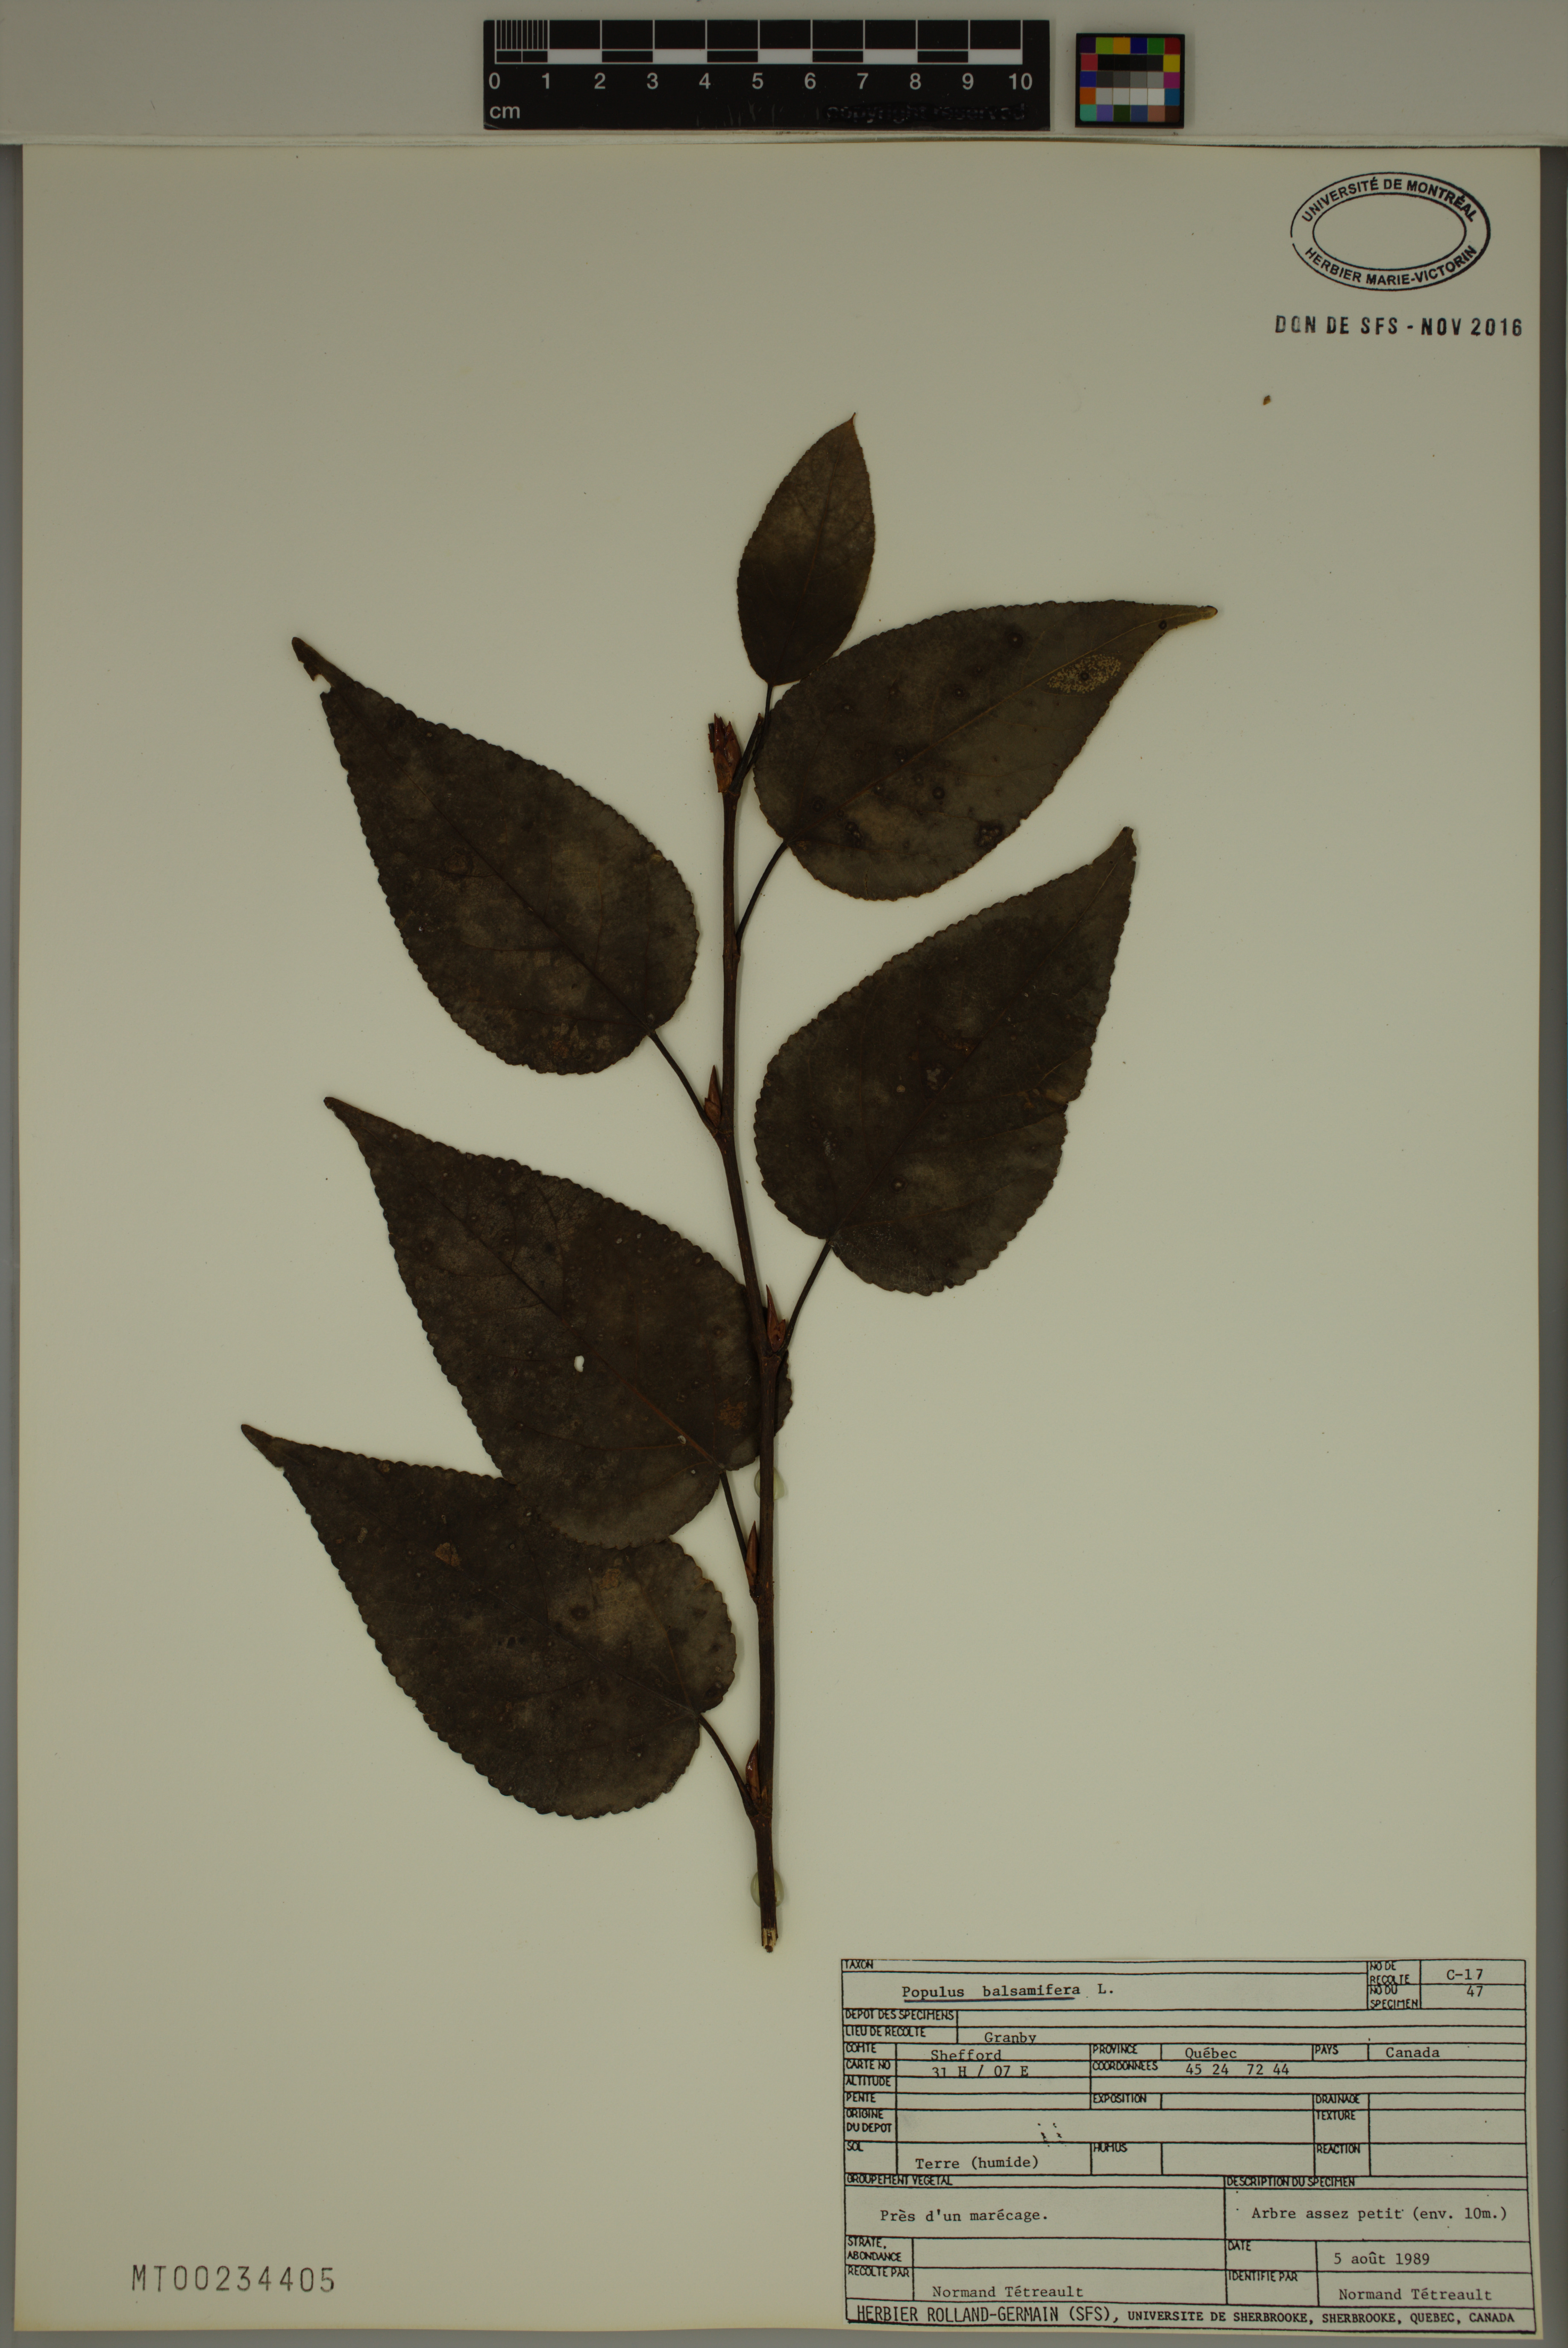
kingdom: Plantae
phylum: Tracheophyta
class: Magnoliopsida
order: Malpighiales
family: Salicaceae
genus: Populus
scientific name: Populus balsamifera
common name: Balsam poplar
